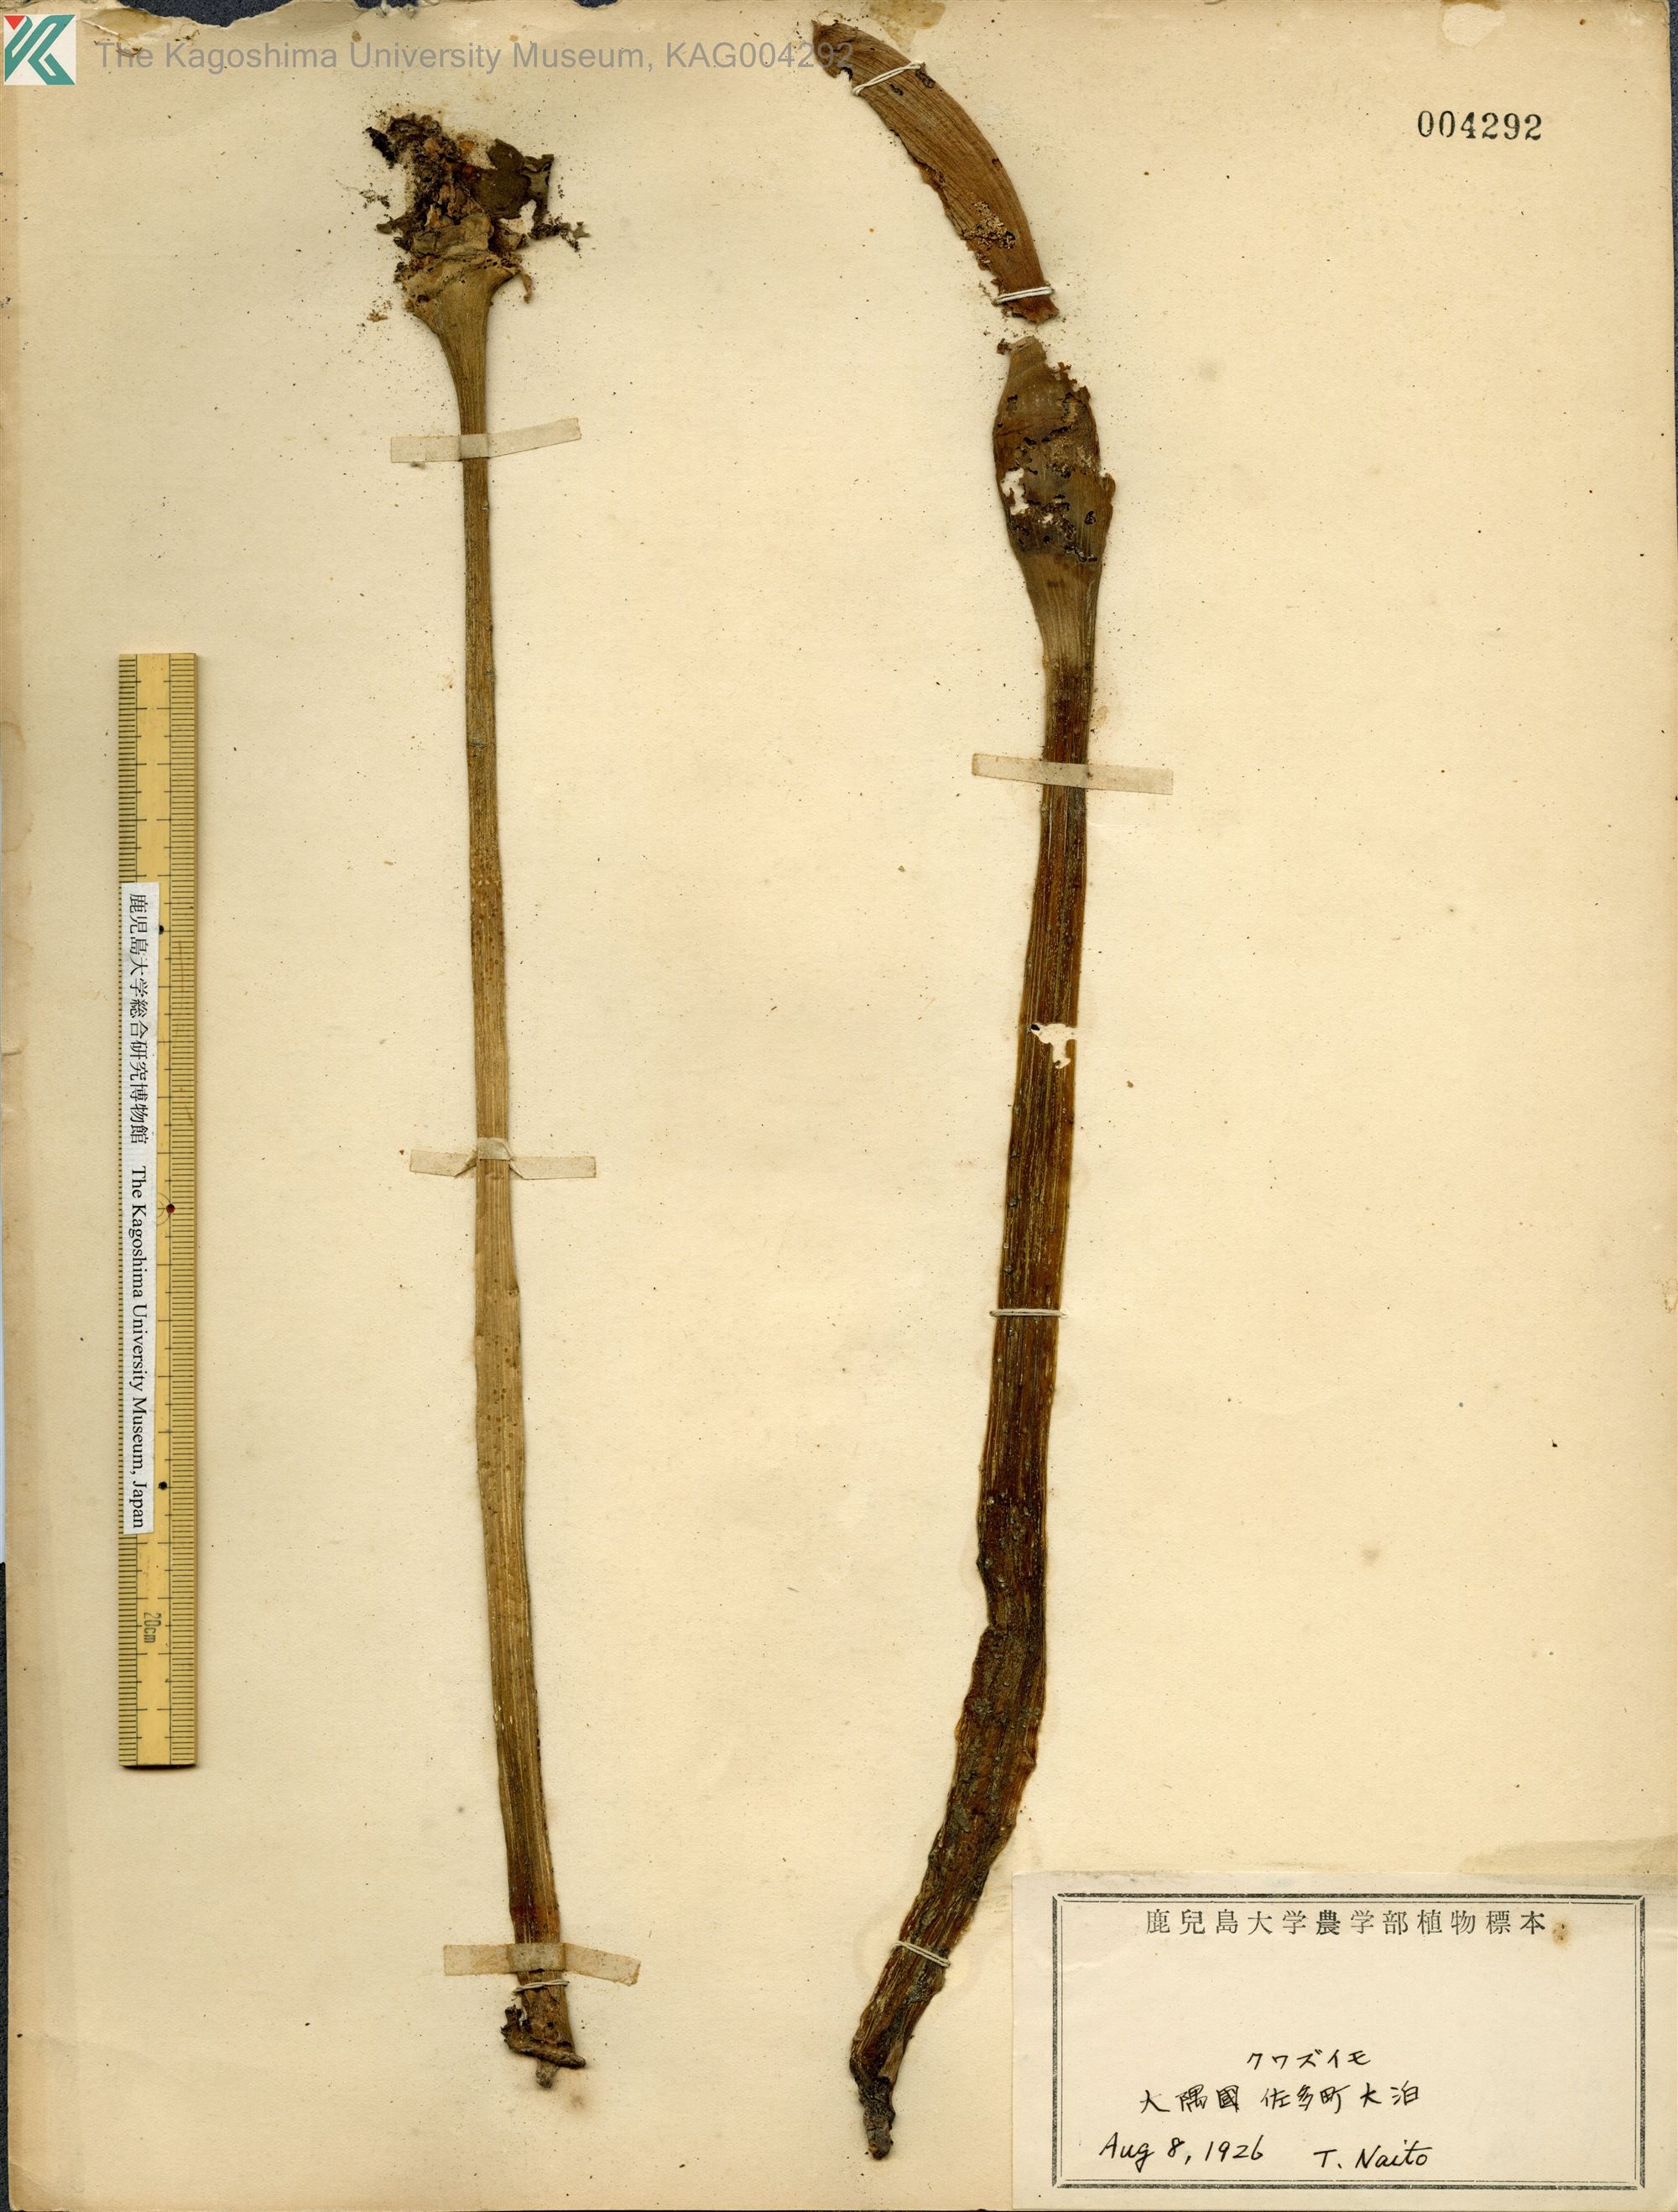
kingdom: Plantae
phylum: Tracheophyta
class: Liliopsida
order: Alismatales
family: Araceae
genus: Alocasia
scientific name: Alocasia odora
